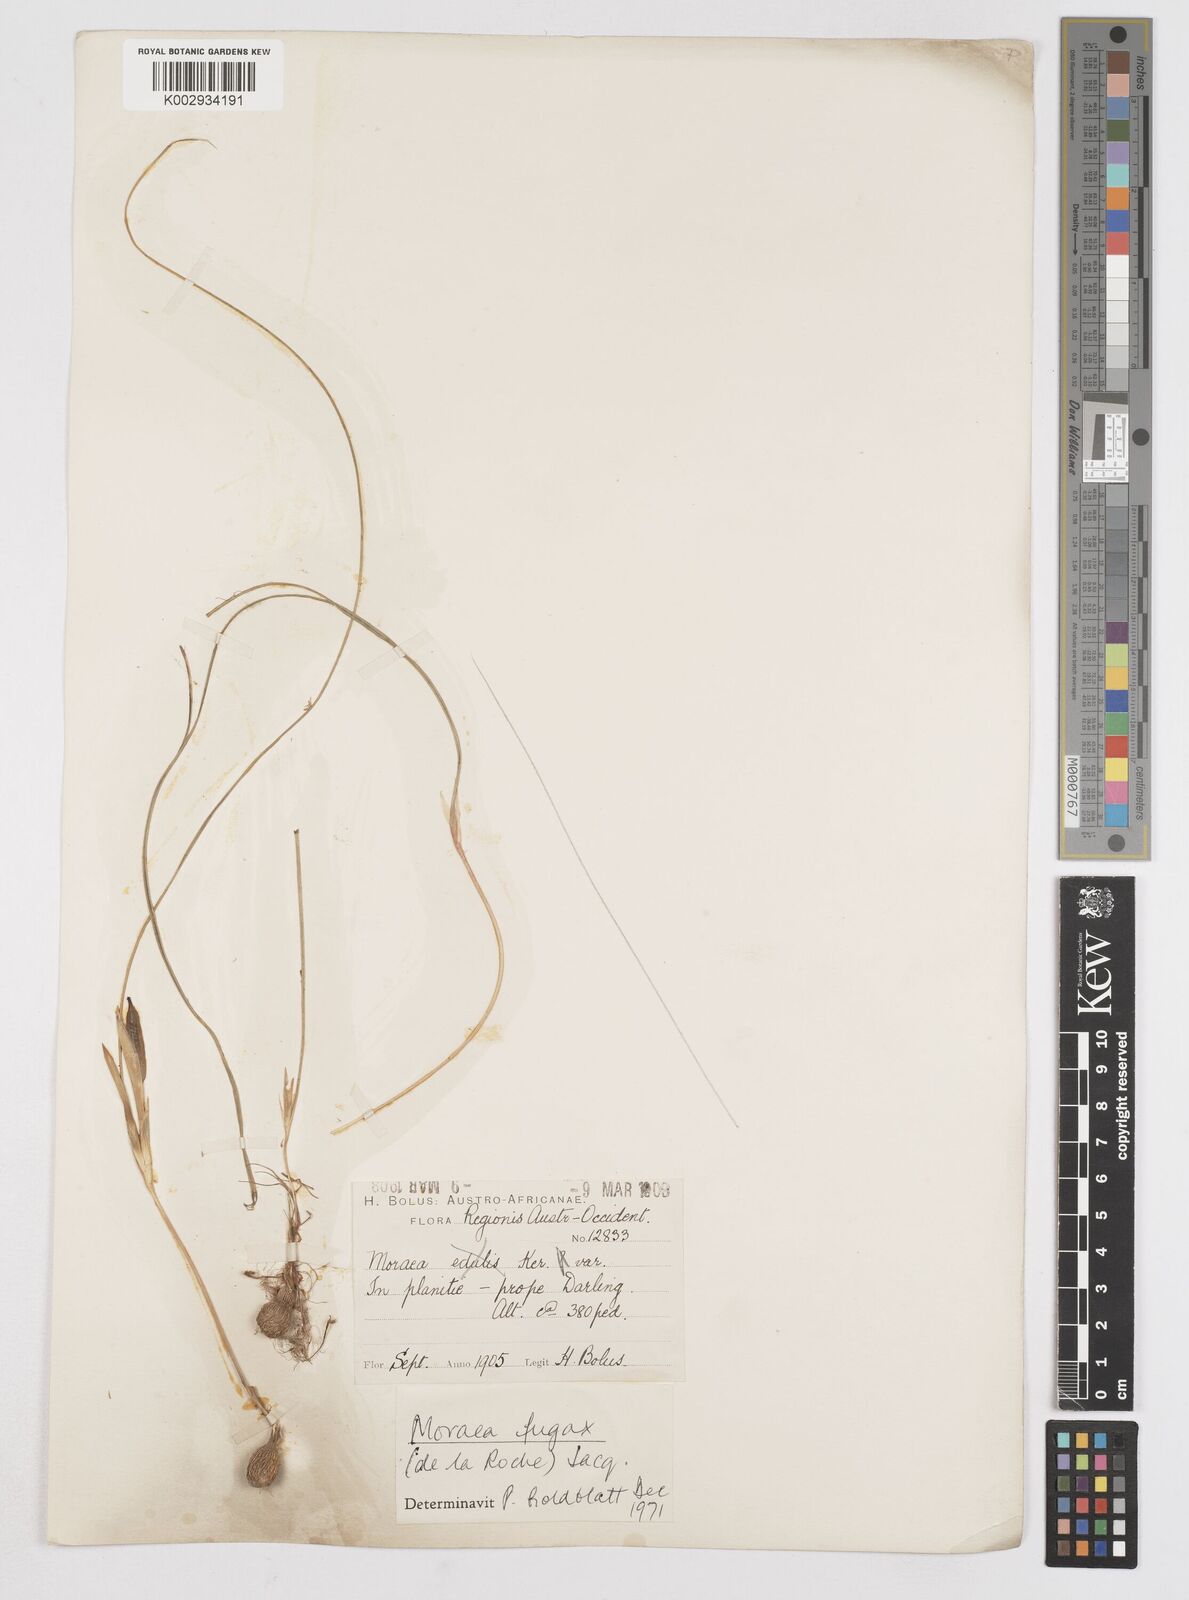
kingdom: Plantae
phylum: Tracheophyta
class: Liliopsida
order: Asparagales
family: Iridaceae
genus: Moraea
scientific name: Moraea fugax
